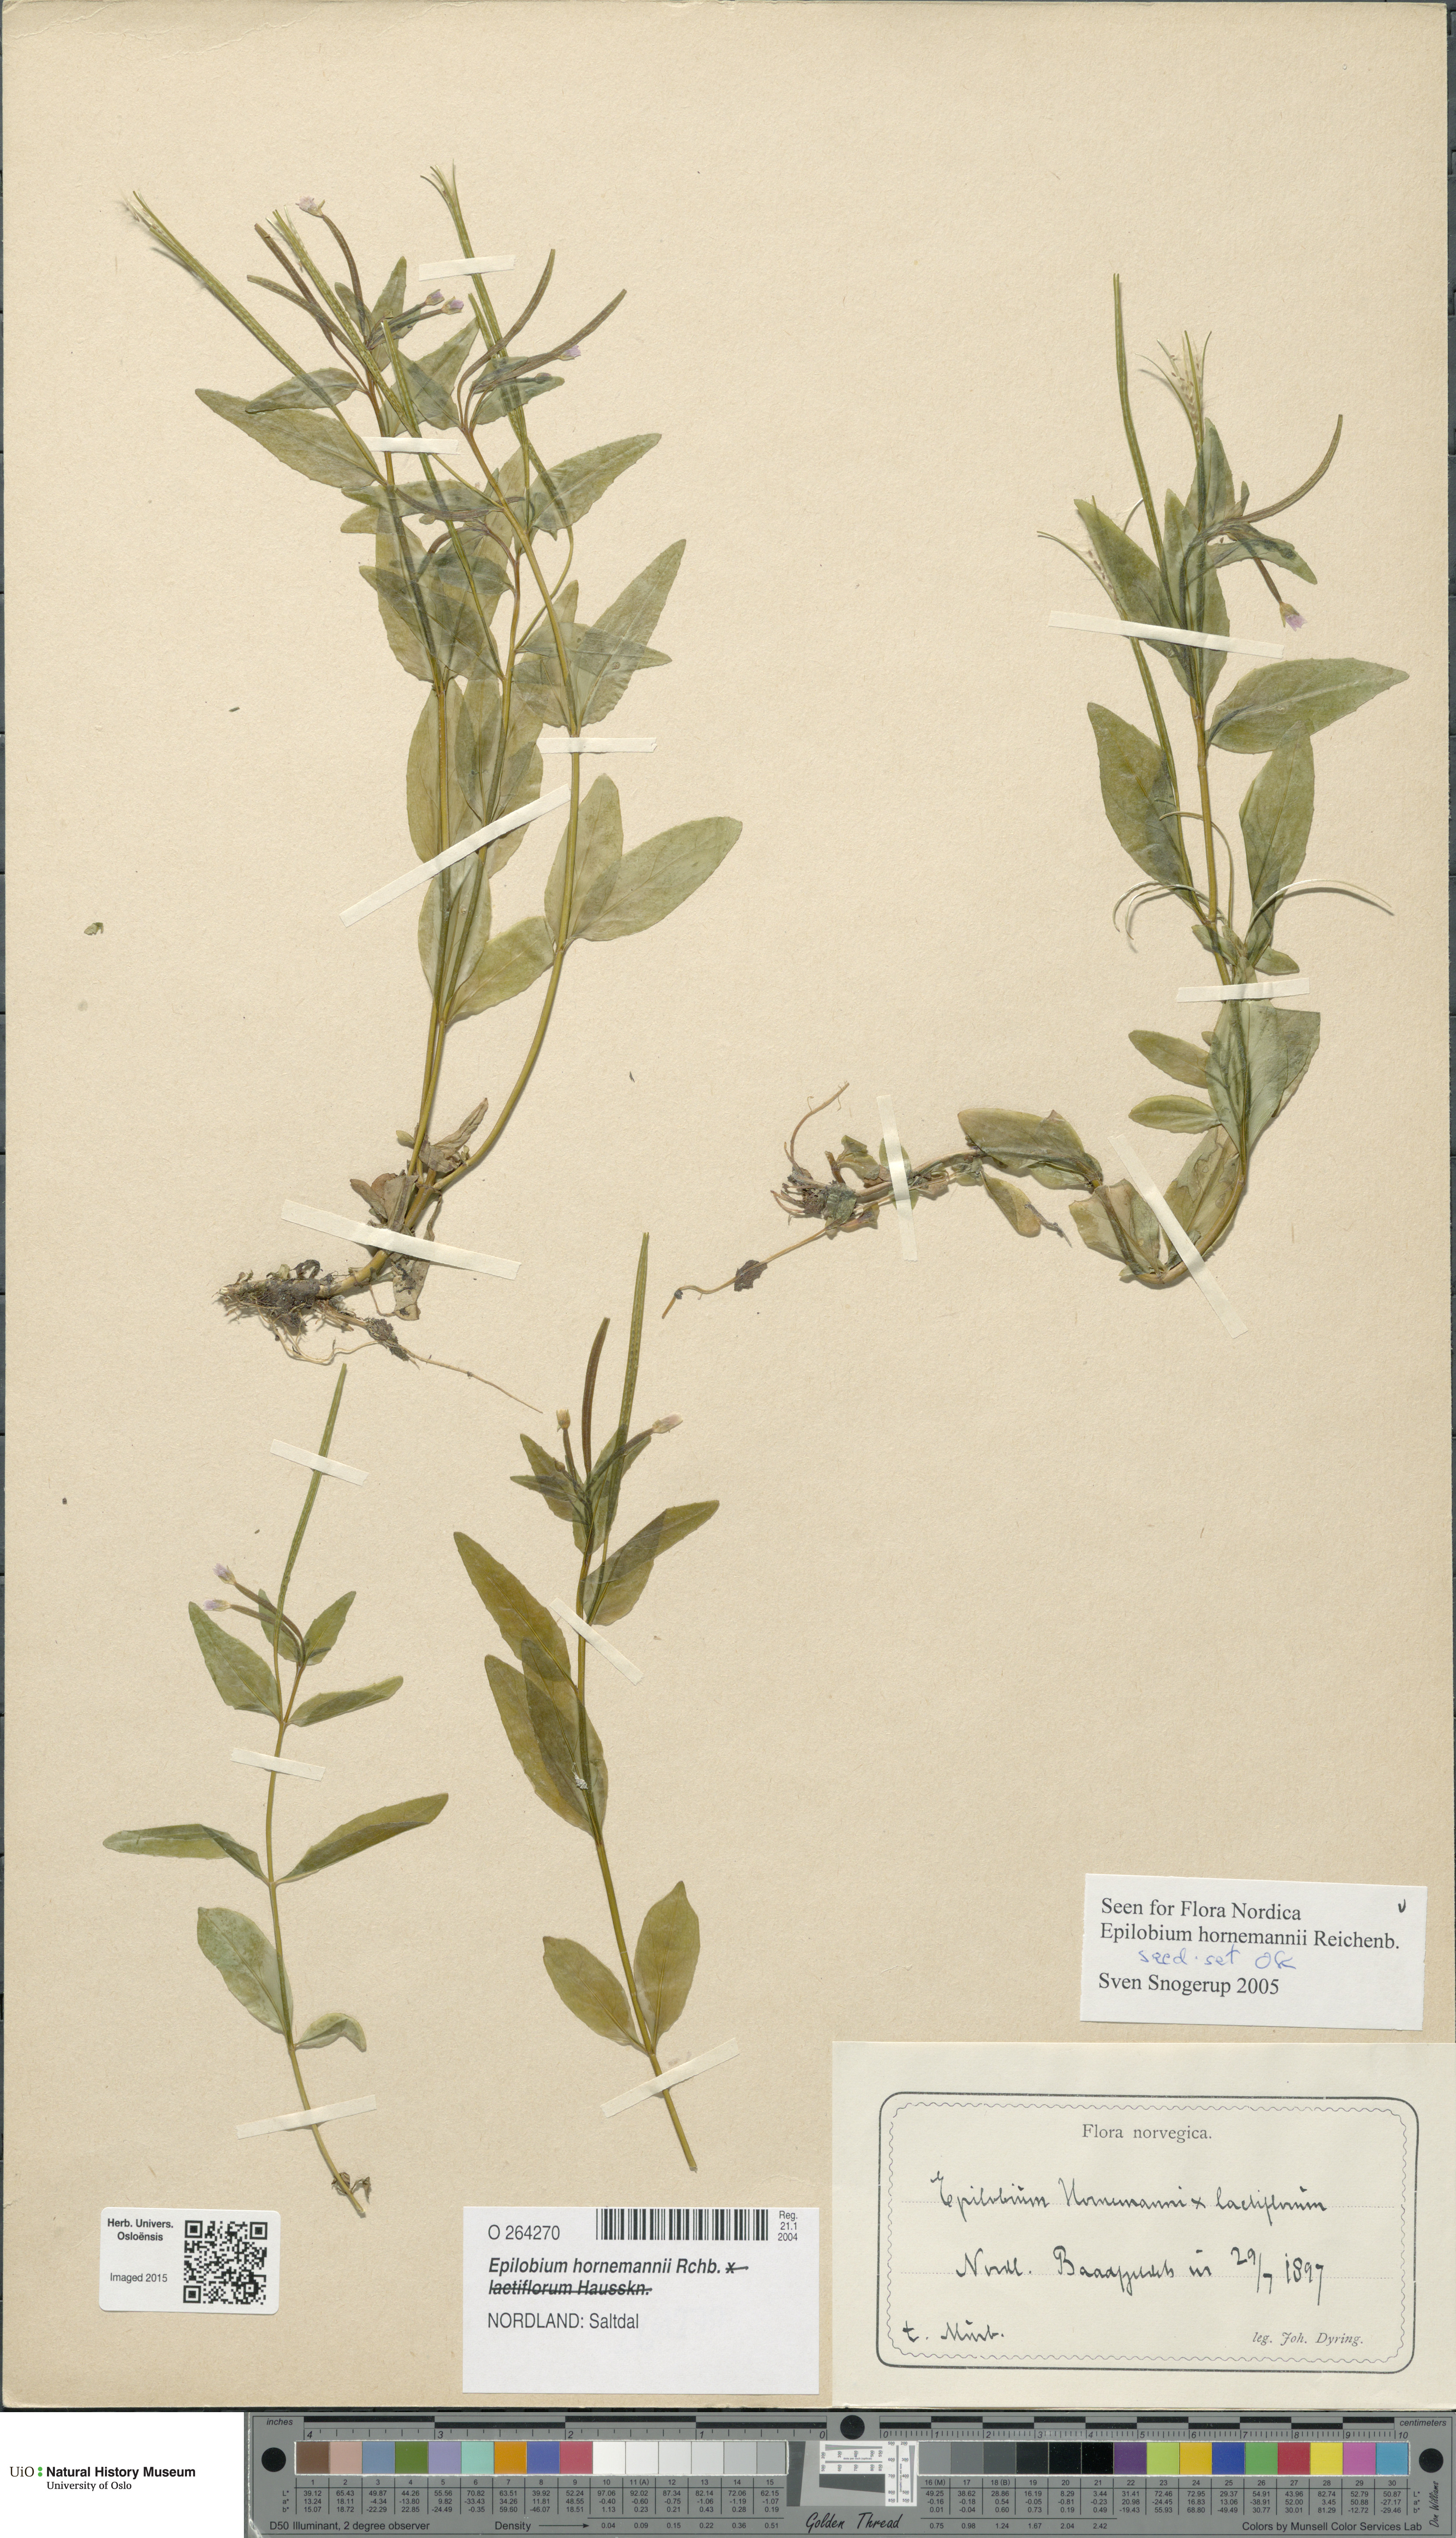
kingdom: Plantae
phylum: Tracheophyta
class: Magnoliopsida
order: Myrtales
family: Onagraceae
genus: Epilobium
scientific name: Epilobium hornemannii
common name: Hornemann's willowherb
